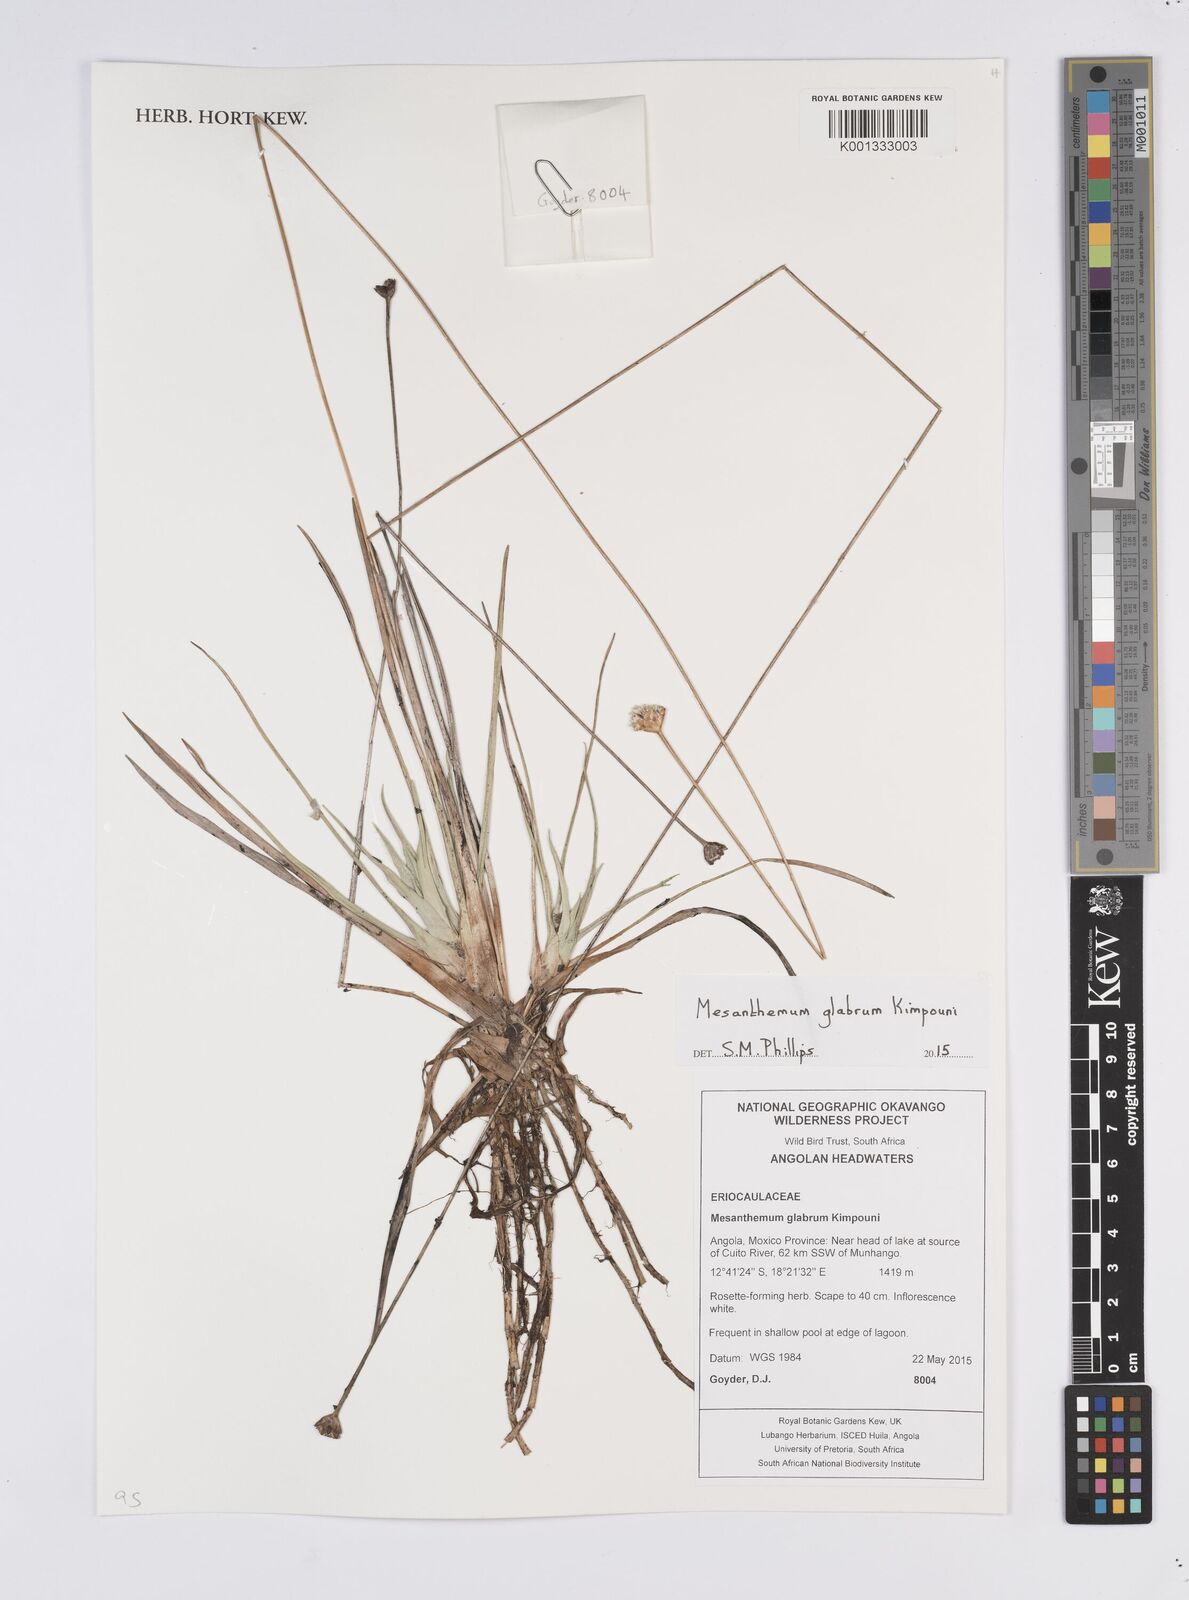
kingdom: Plantae
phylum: Tracheophyta
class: Liliopsida
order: Poales
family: Eriocaulaceae
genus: Mesanthemum
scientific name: Mesanthemum glabrum
